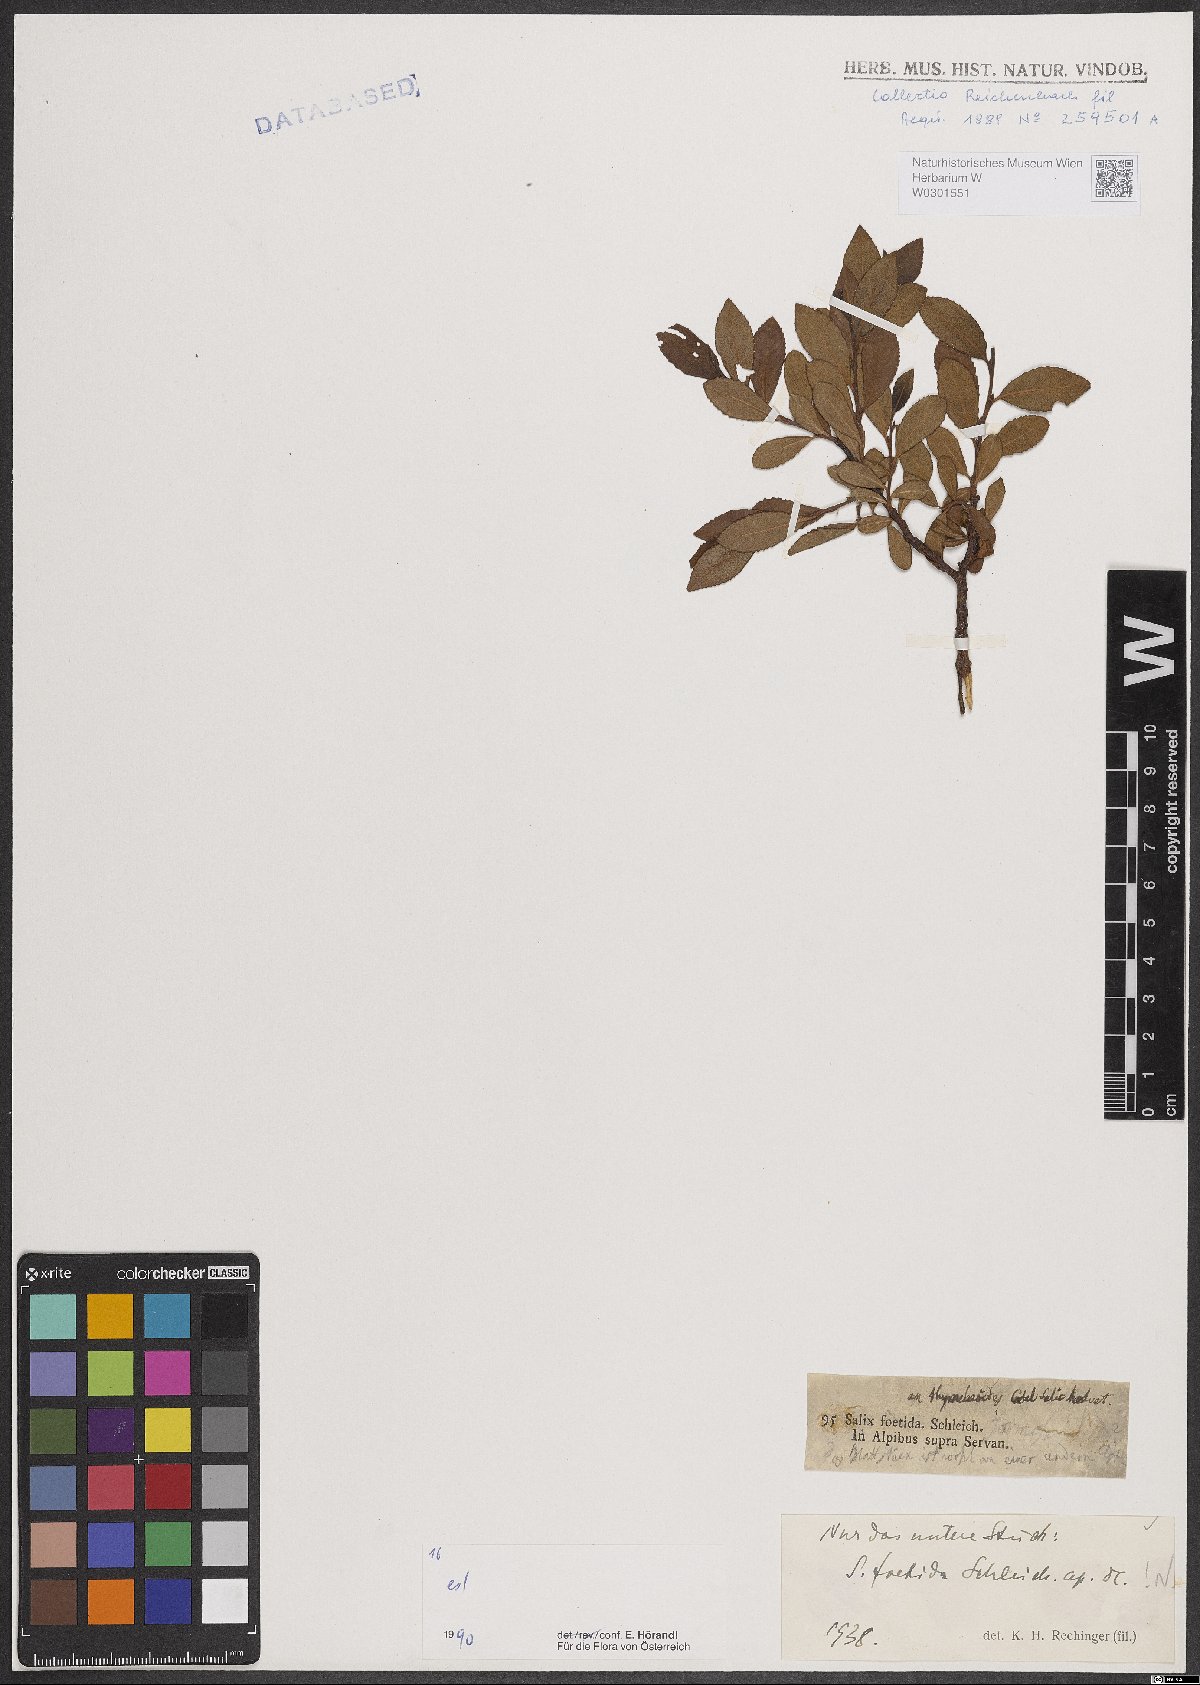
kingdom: Plantae
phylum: Tracheophyta
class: Magnoliopsida
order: Malpighiales
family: Salicaceae
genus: Salix
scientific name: Salix foetida
